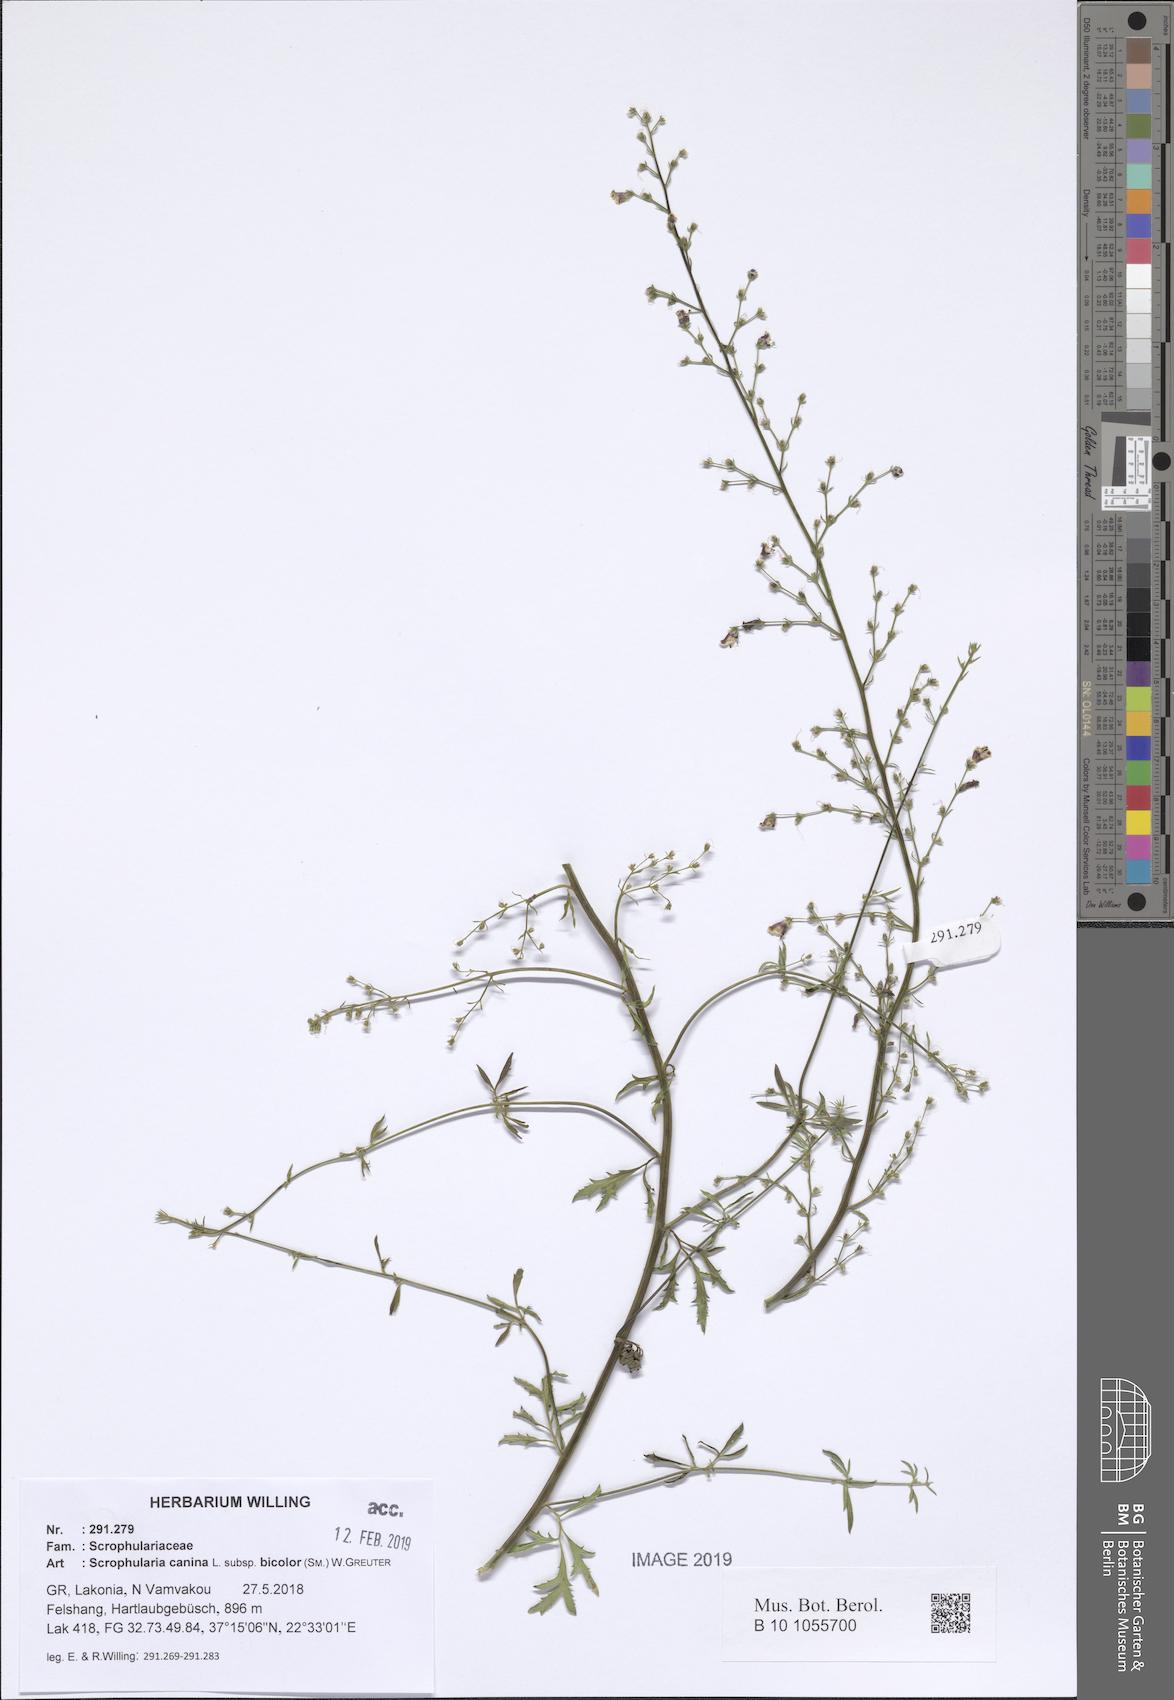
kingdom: Plantae
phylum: Tracheophyta
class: Magnoliopsida
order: Lamiales
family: Scrophulariaceae
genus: Scrophularia
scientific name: Scrophularia canina
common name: French figwort
